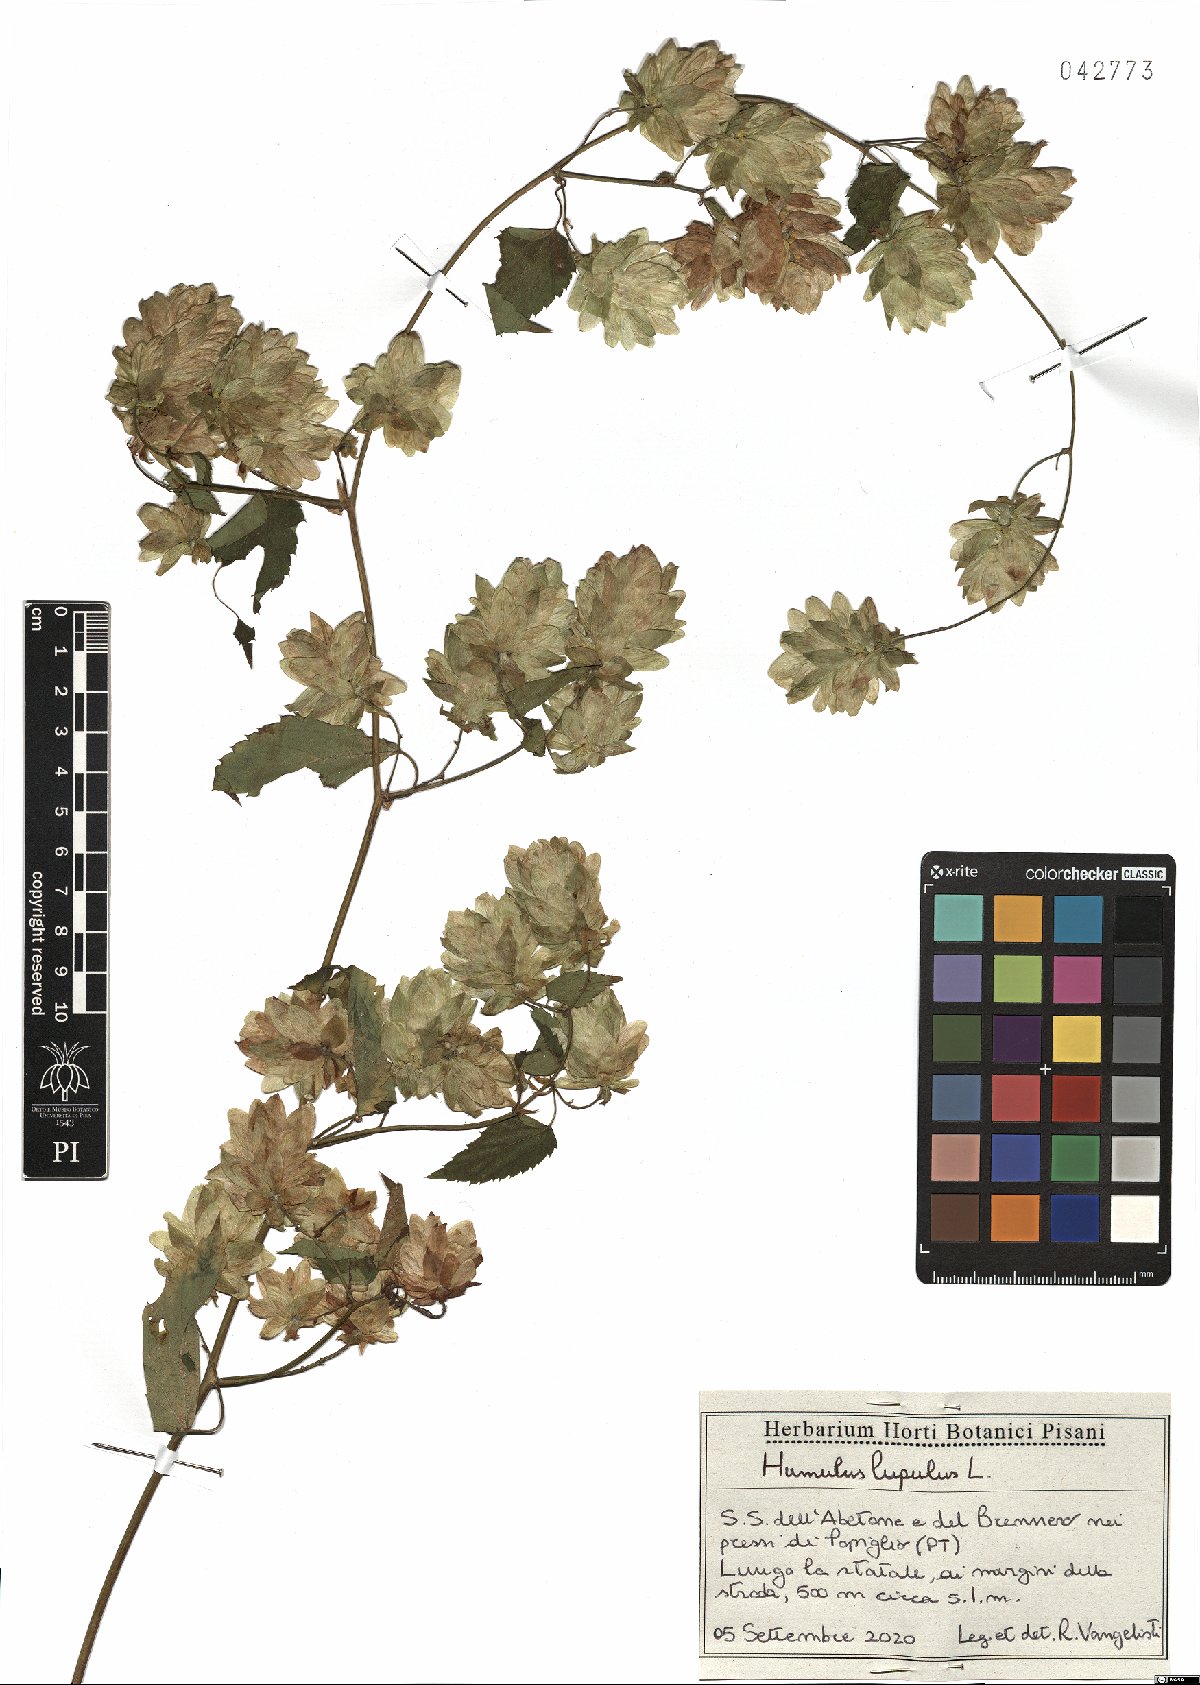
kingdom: Plantae
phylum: Tracheophyta
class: Magnoliopsida
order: Rosales
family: Cannabaceae
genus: Humulus
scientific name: Humulus lupulus
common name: Hop
